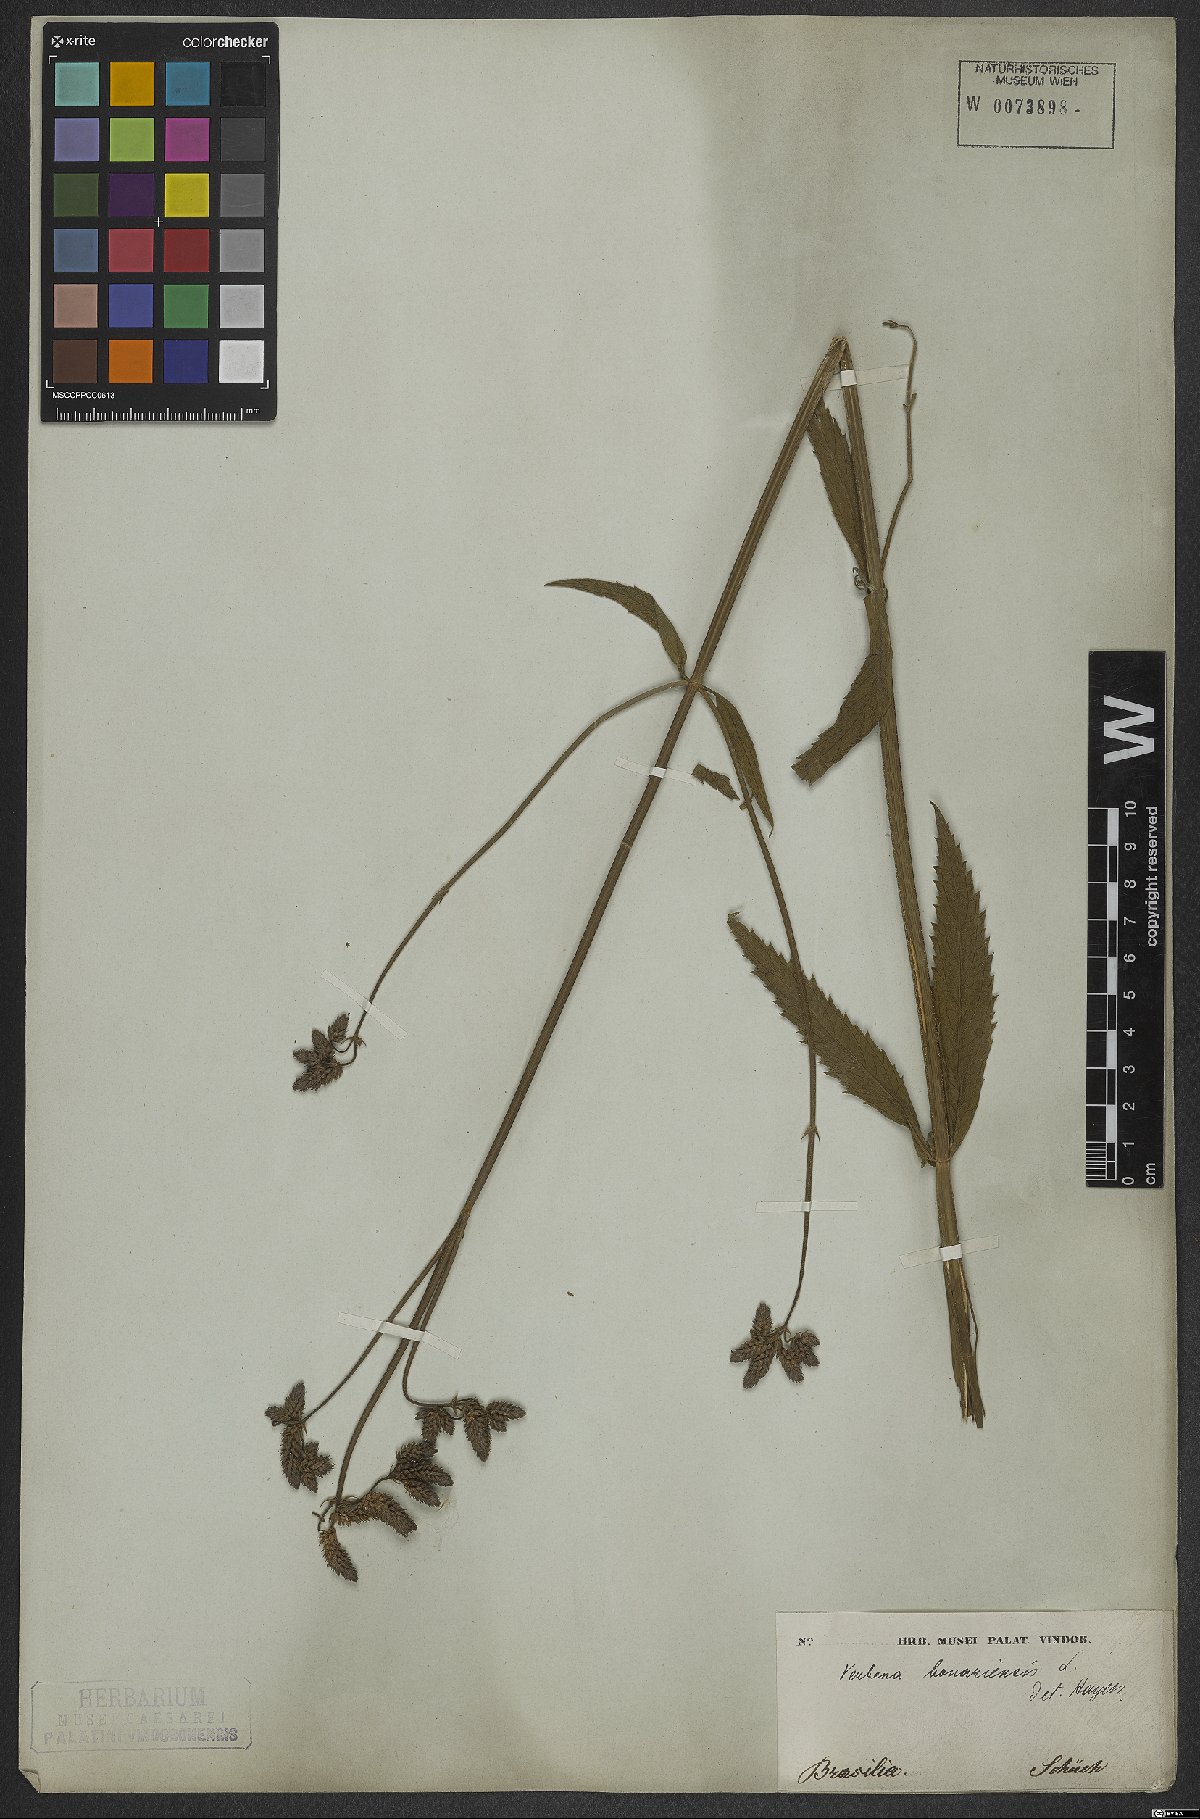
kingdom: Plantae
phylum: Tracheophyta
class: Magnoliopsida
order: Lamiales
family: Verbenaceae
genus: Verbena
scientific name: Verbena bonariensis
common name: Purpletop vervain
